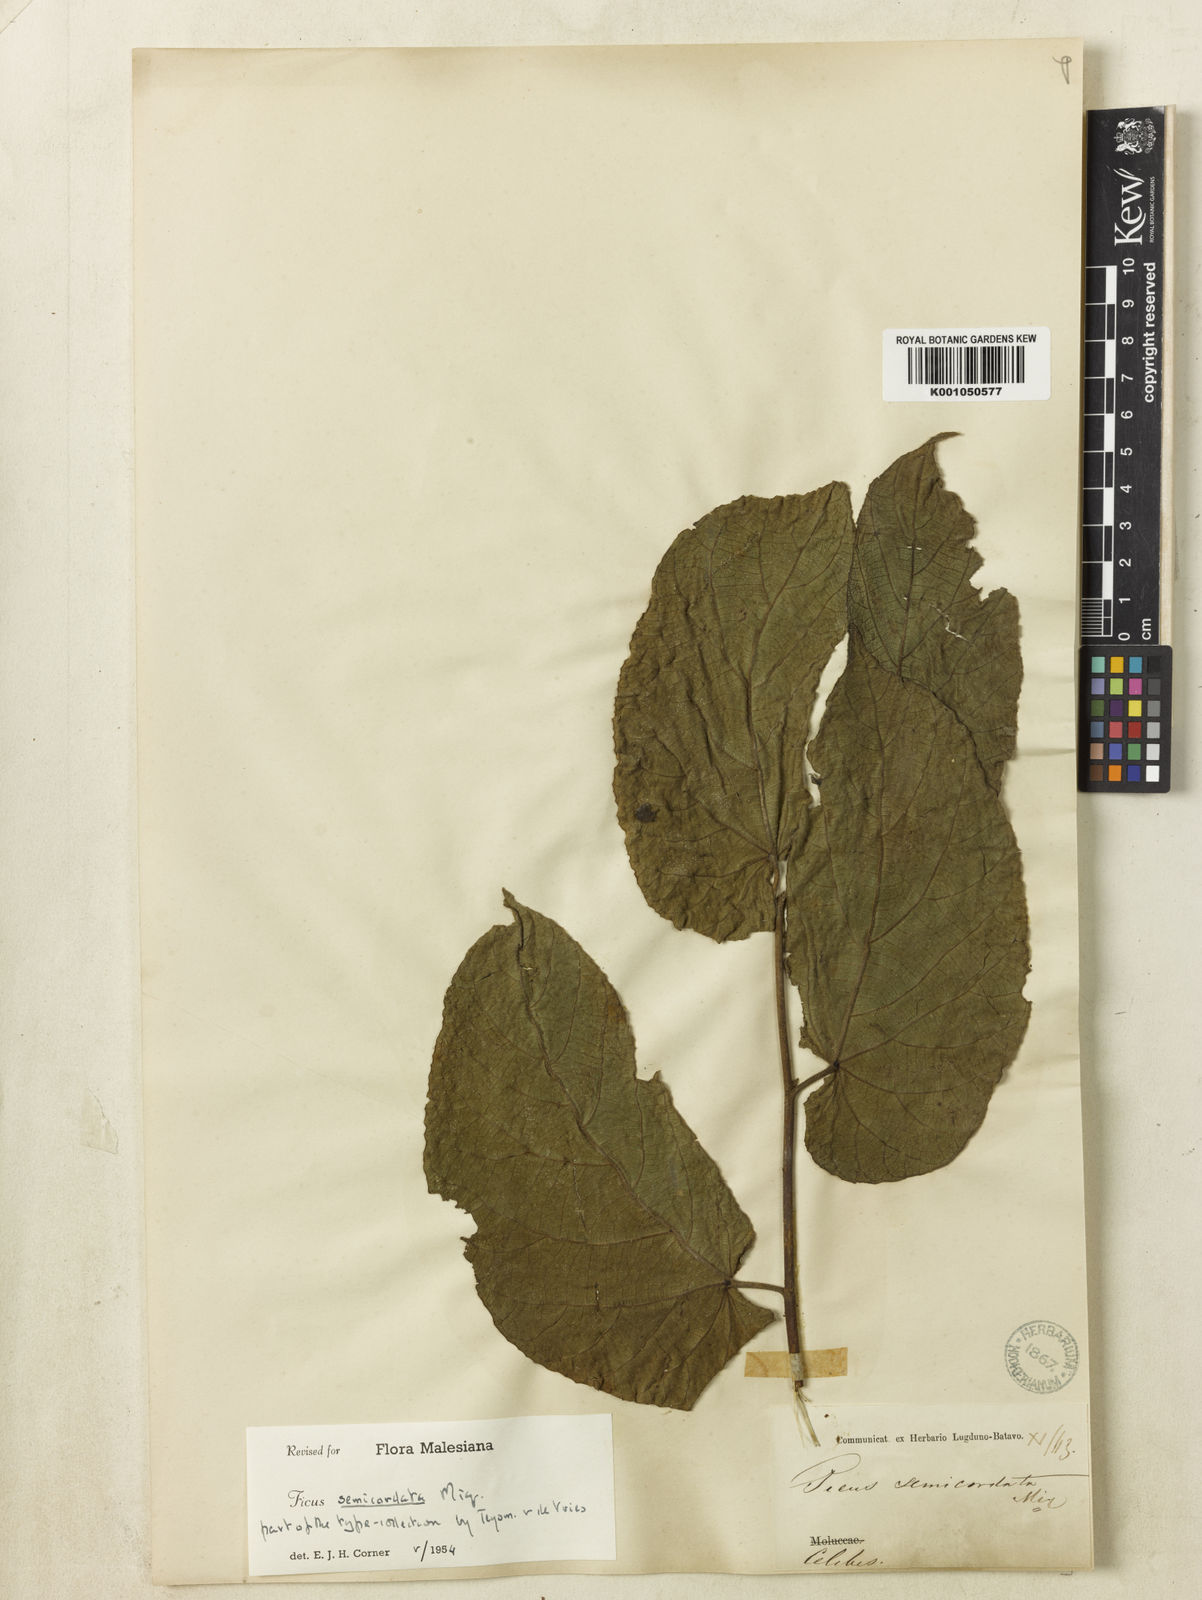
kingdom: Plantae
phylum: Tracheophyta
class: Magnoliopsida
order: Rosales
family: Moraceae
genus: Ficus
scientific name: Ficus elmeri
